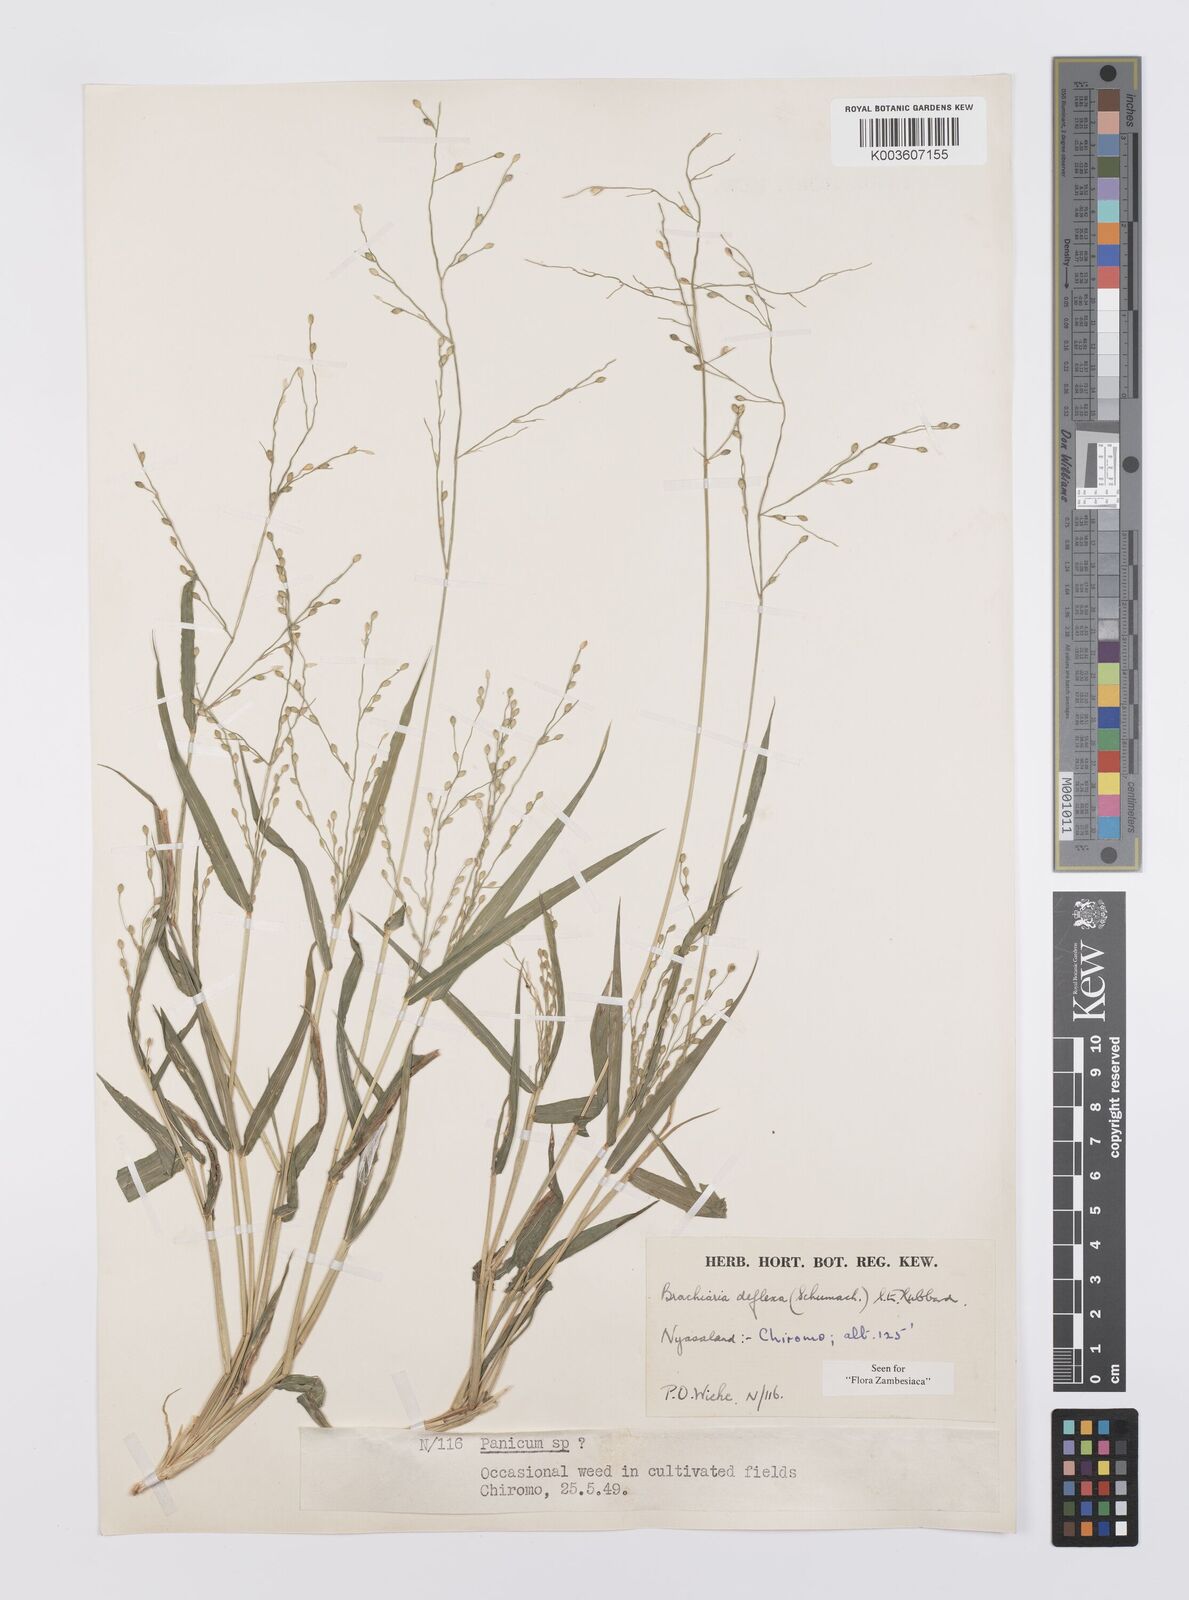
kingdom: Plantae
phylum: Tracheophyta
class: Liliopsida
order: Poales
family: Poaceae
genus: Urochloa
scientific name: Urochloa deflexa
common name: Guinea millet
